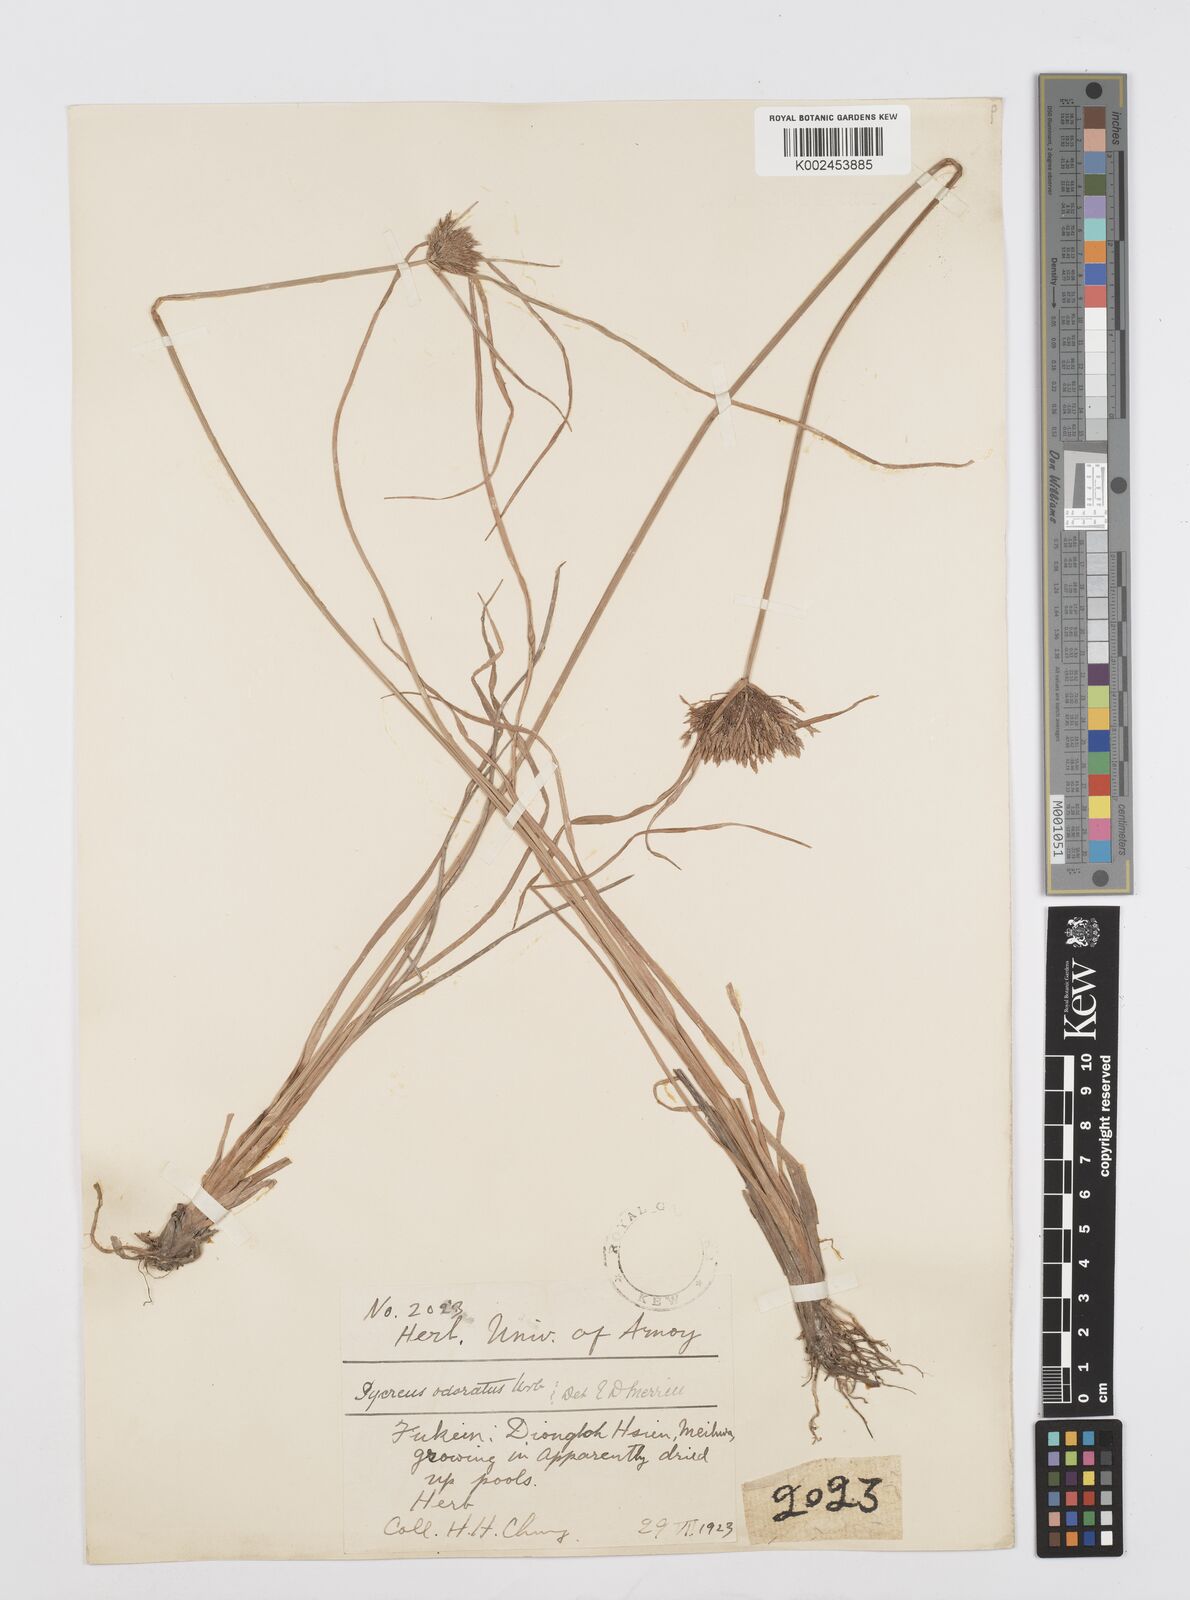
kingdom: Plantae
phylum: Tracheophyta
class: Liliopsida
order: Poales
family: Cyperaceae
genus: Cyperus
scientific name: Cyperus polystachyos
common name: Bunchy flat sedge
